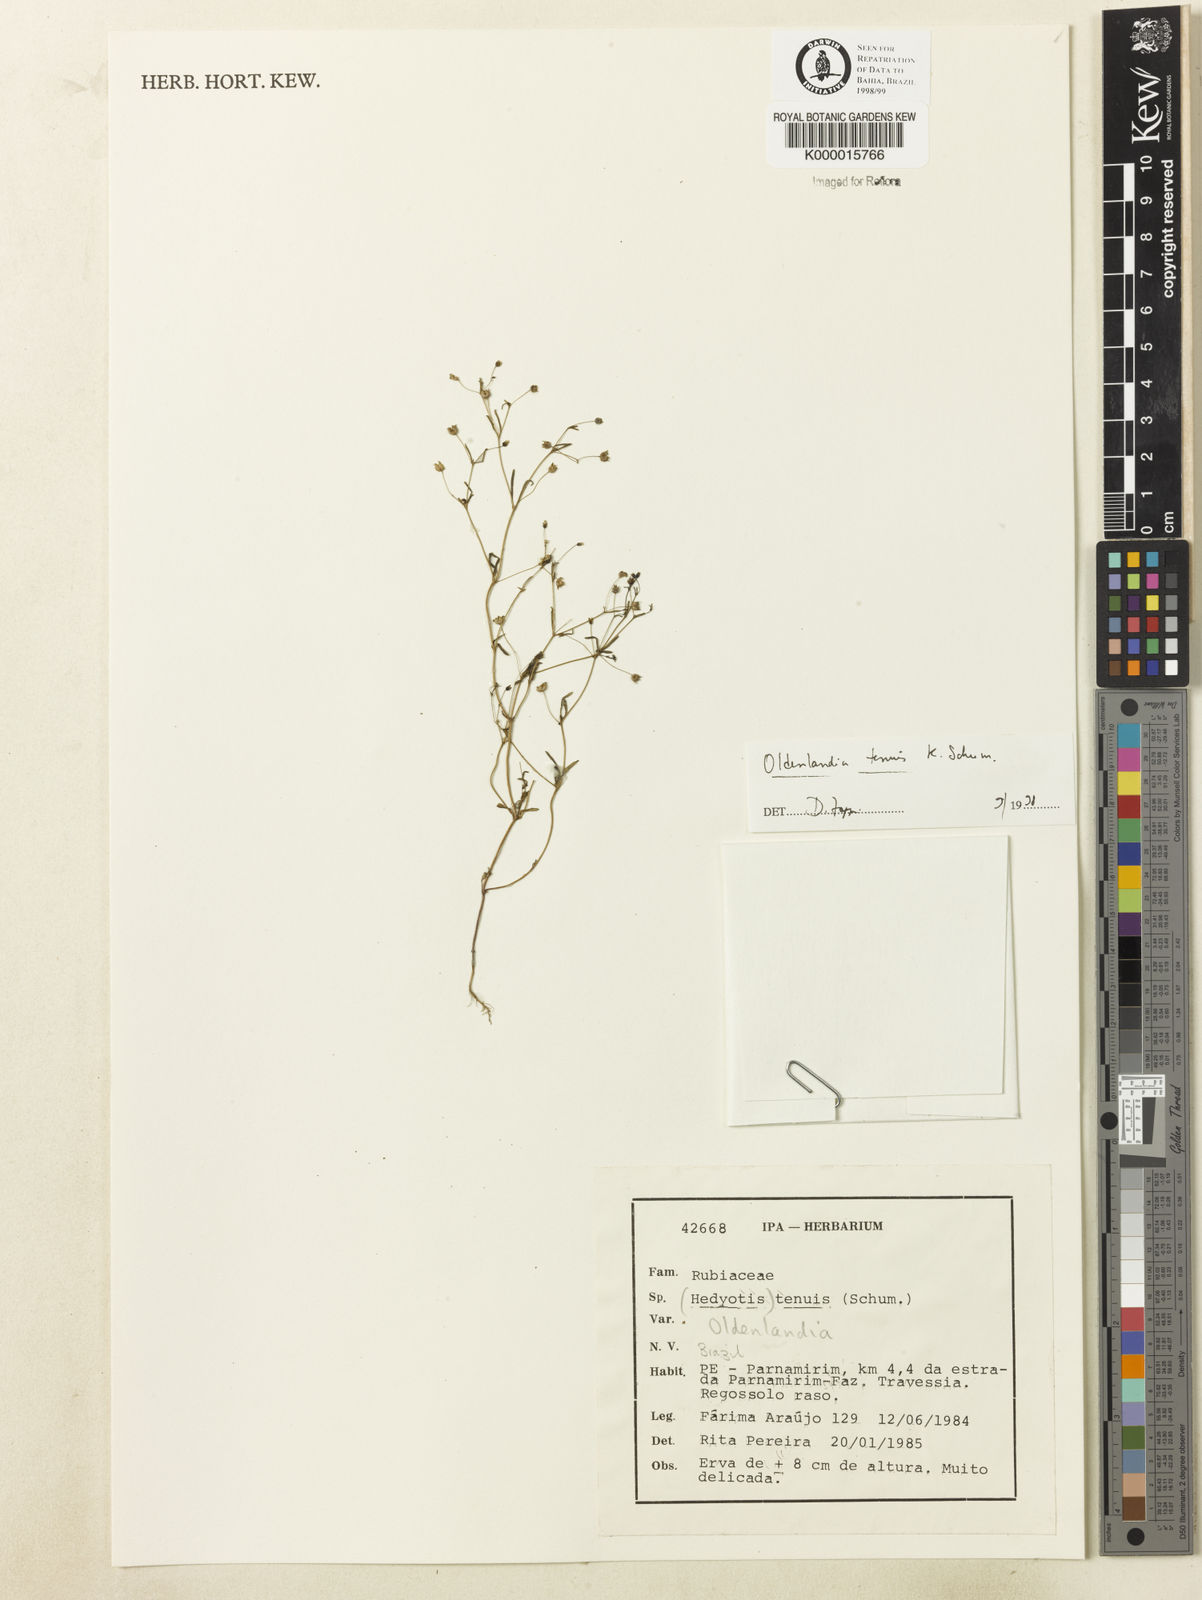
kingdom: Plantae
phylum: Tracheophyta
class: Magnoliopsida
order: Gentianales
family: Rubiaceae
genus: Oldenlandia
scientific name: Oldenlandia tenuis
